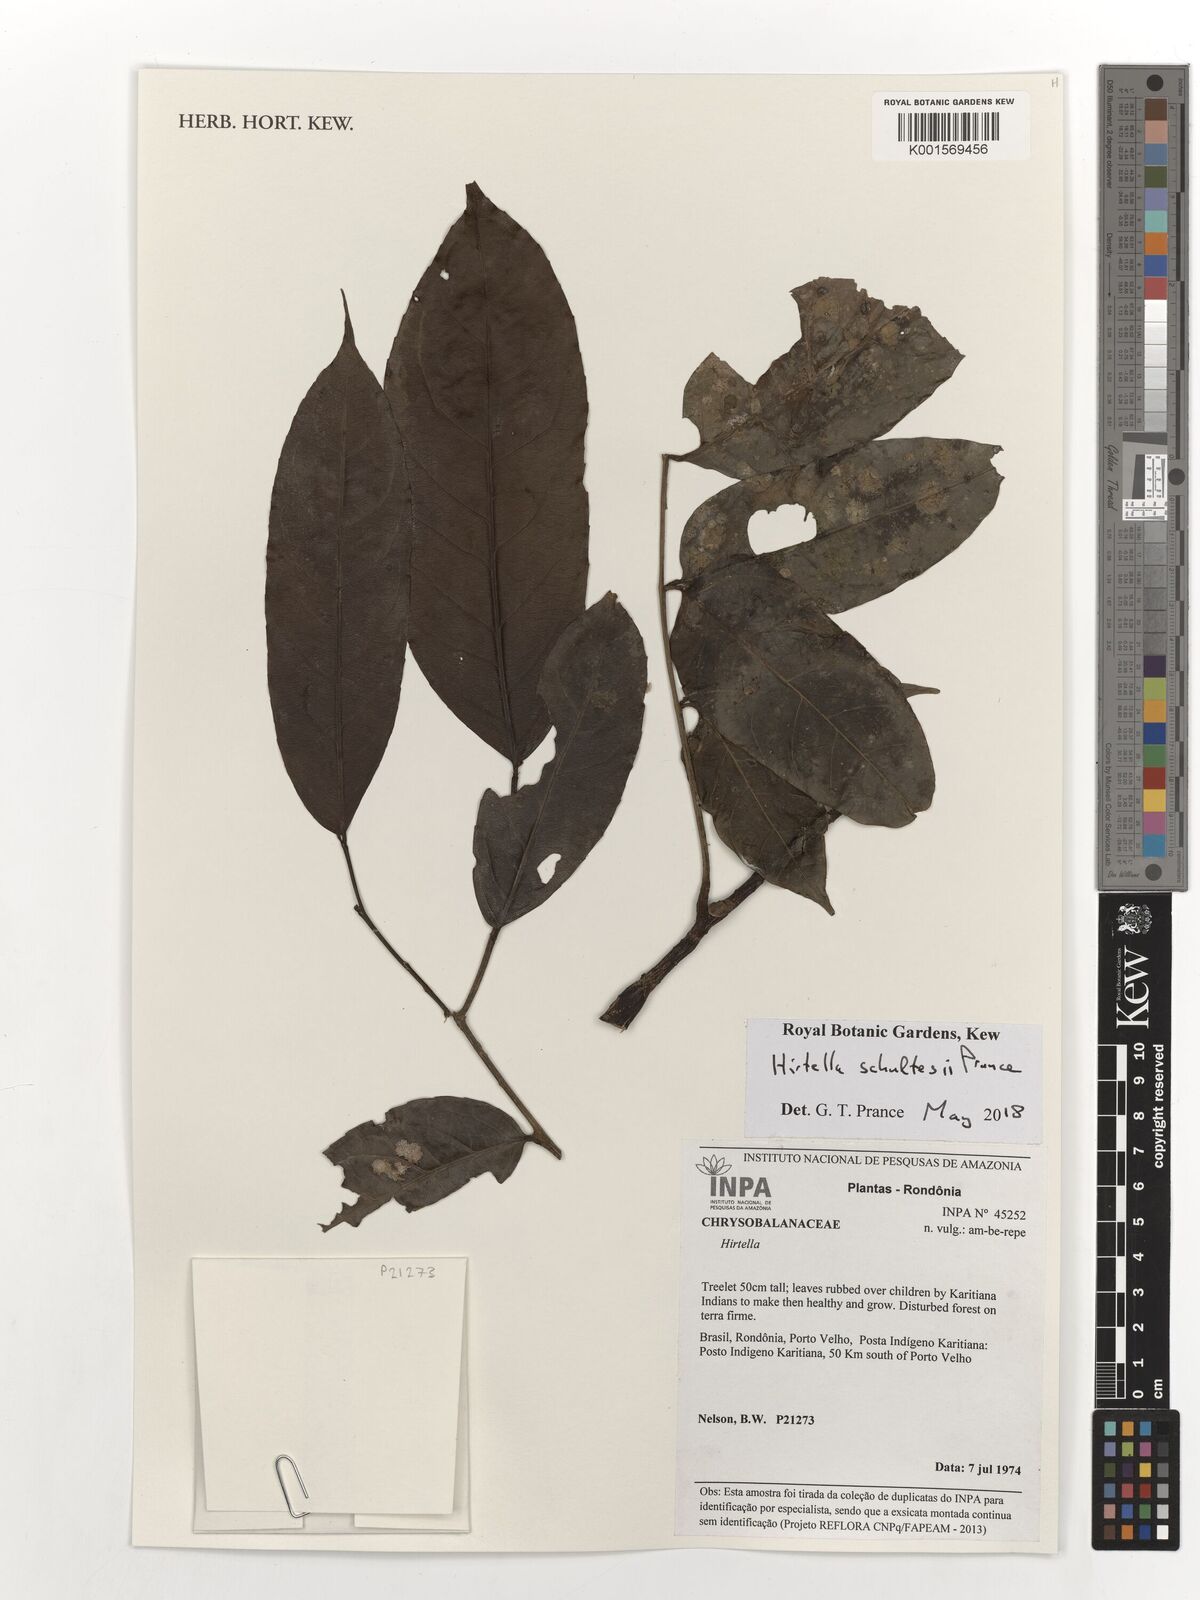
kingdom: Plantae
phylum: Tracheophyta
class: Magnoliopsida
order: Malpighiales
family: Chrysobalanaceae
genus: Hirtella
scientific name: Hirtella schultesii
